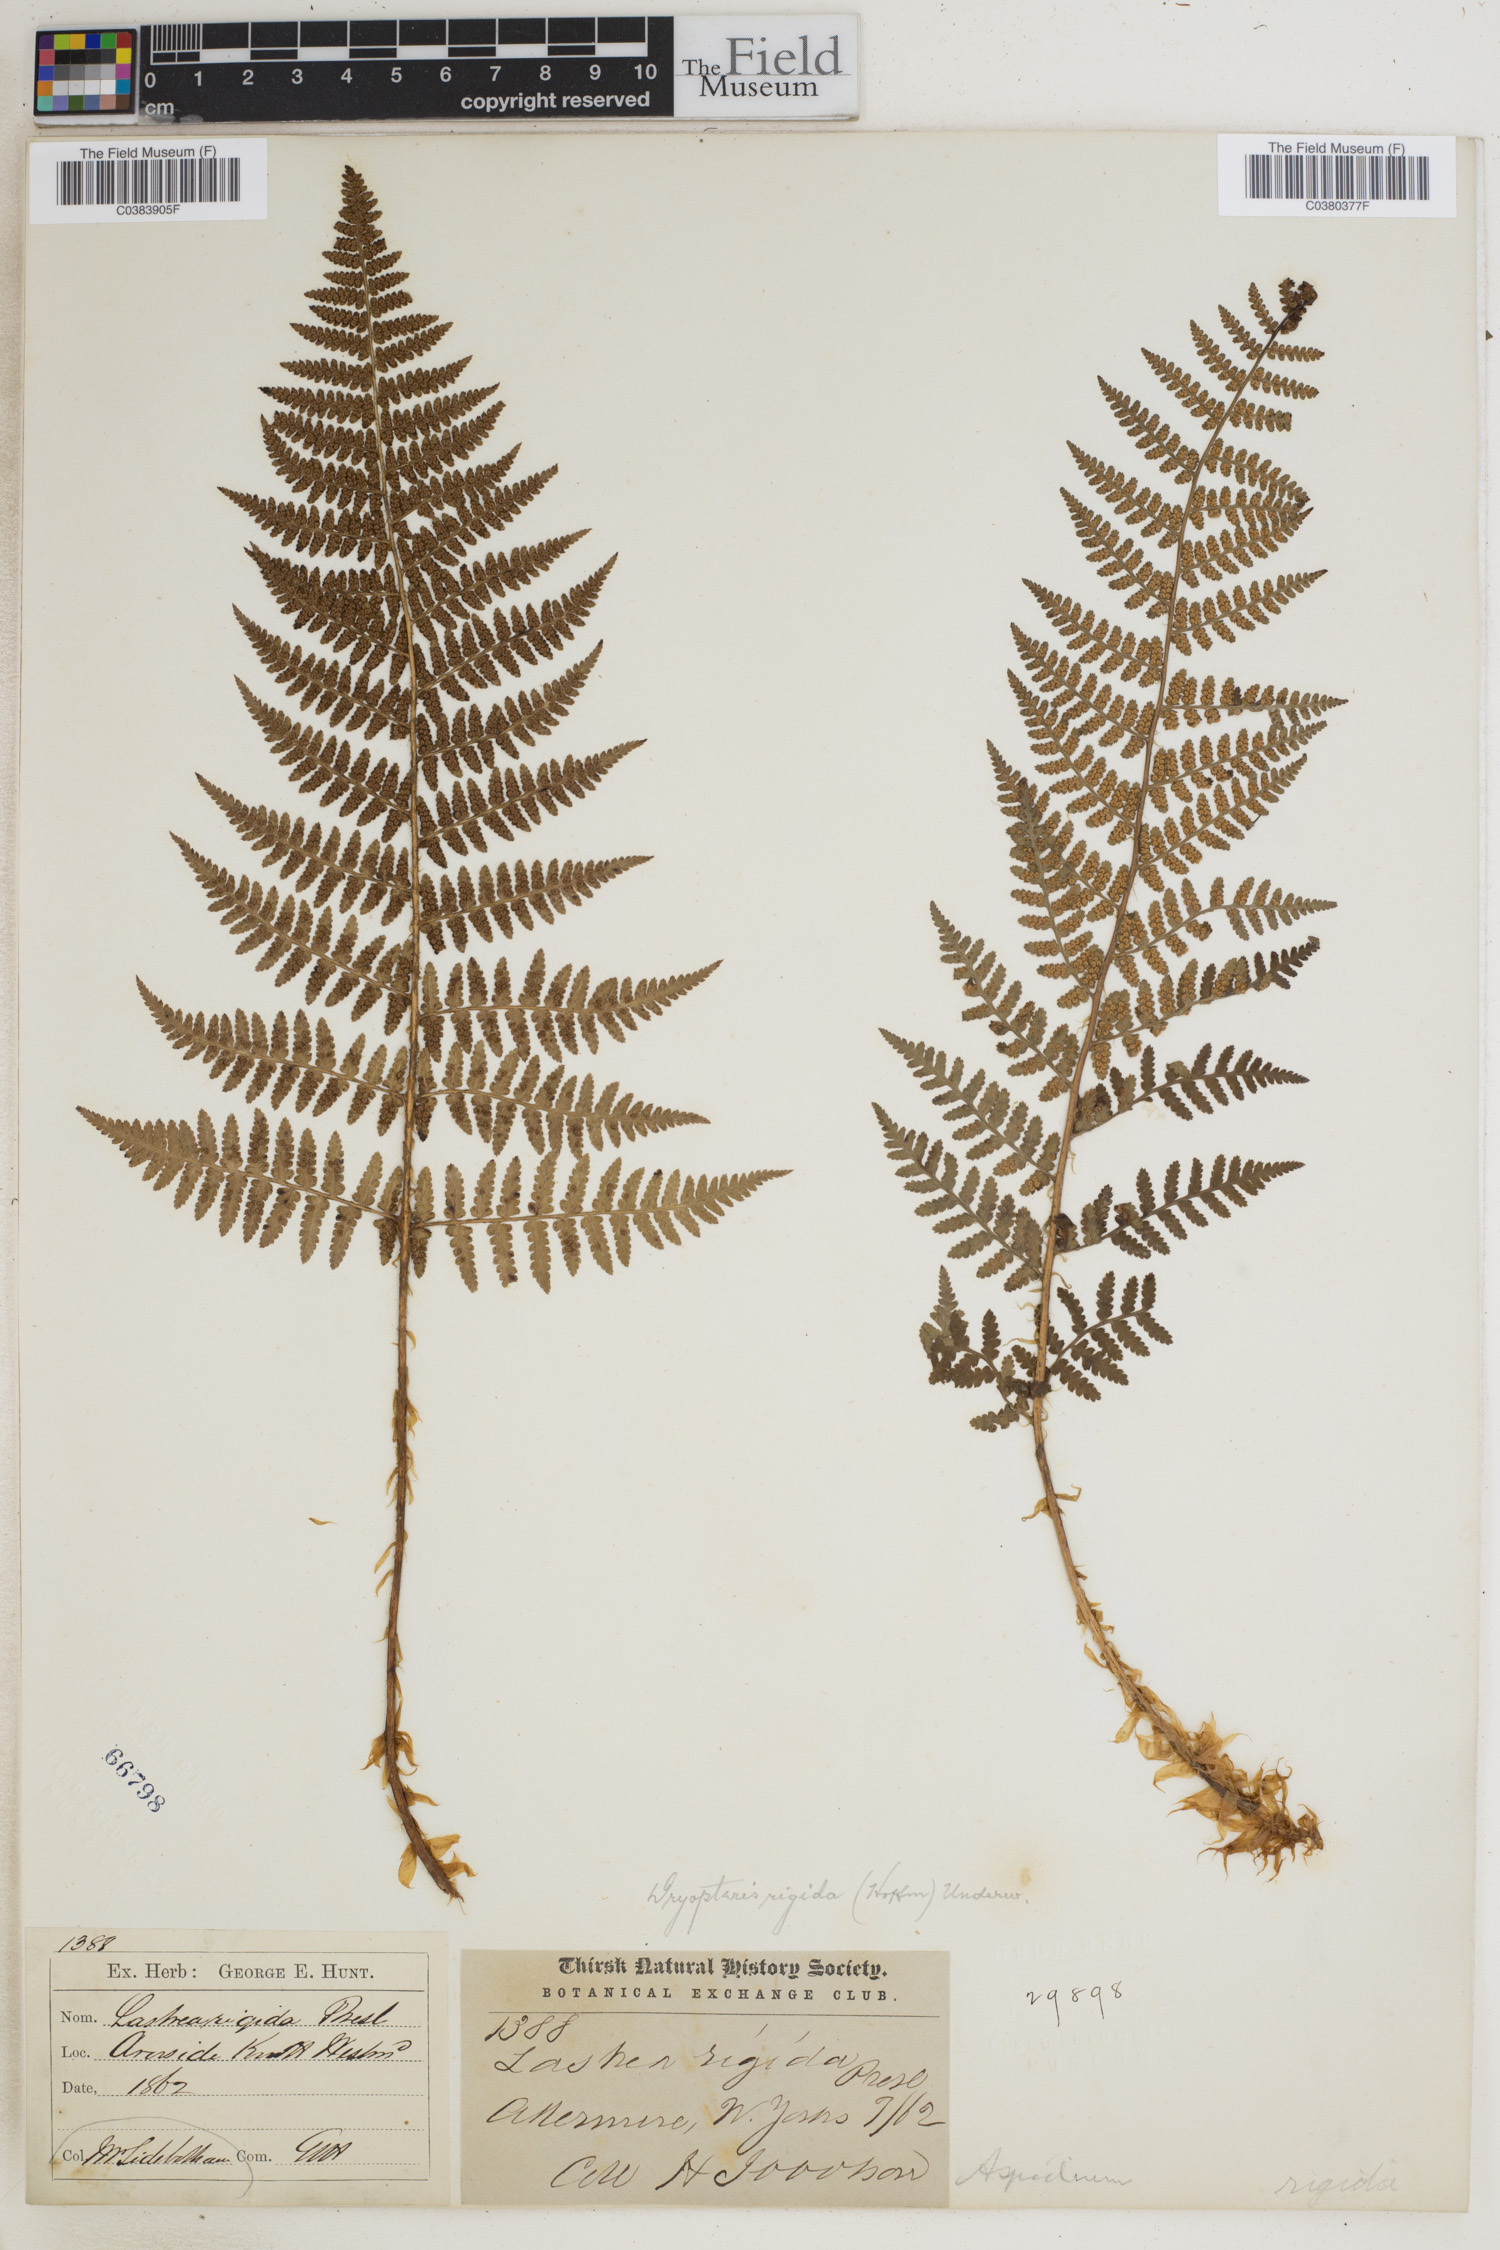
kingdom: Plantae
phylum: Tracheophyta
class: Polypodiopsida
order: Polypodiales
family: Dryopteridaceae
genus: Dryopteris
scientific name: Dryopteris
